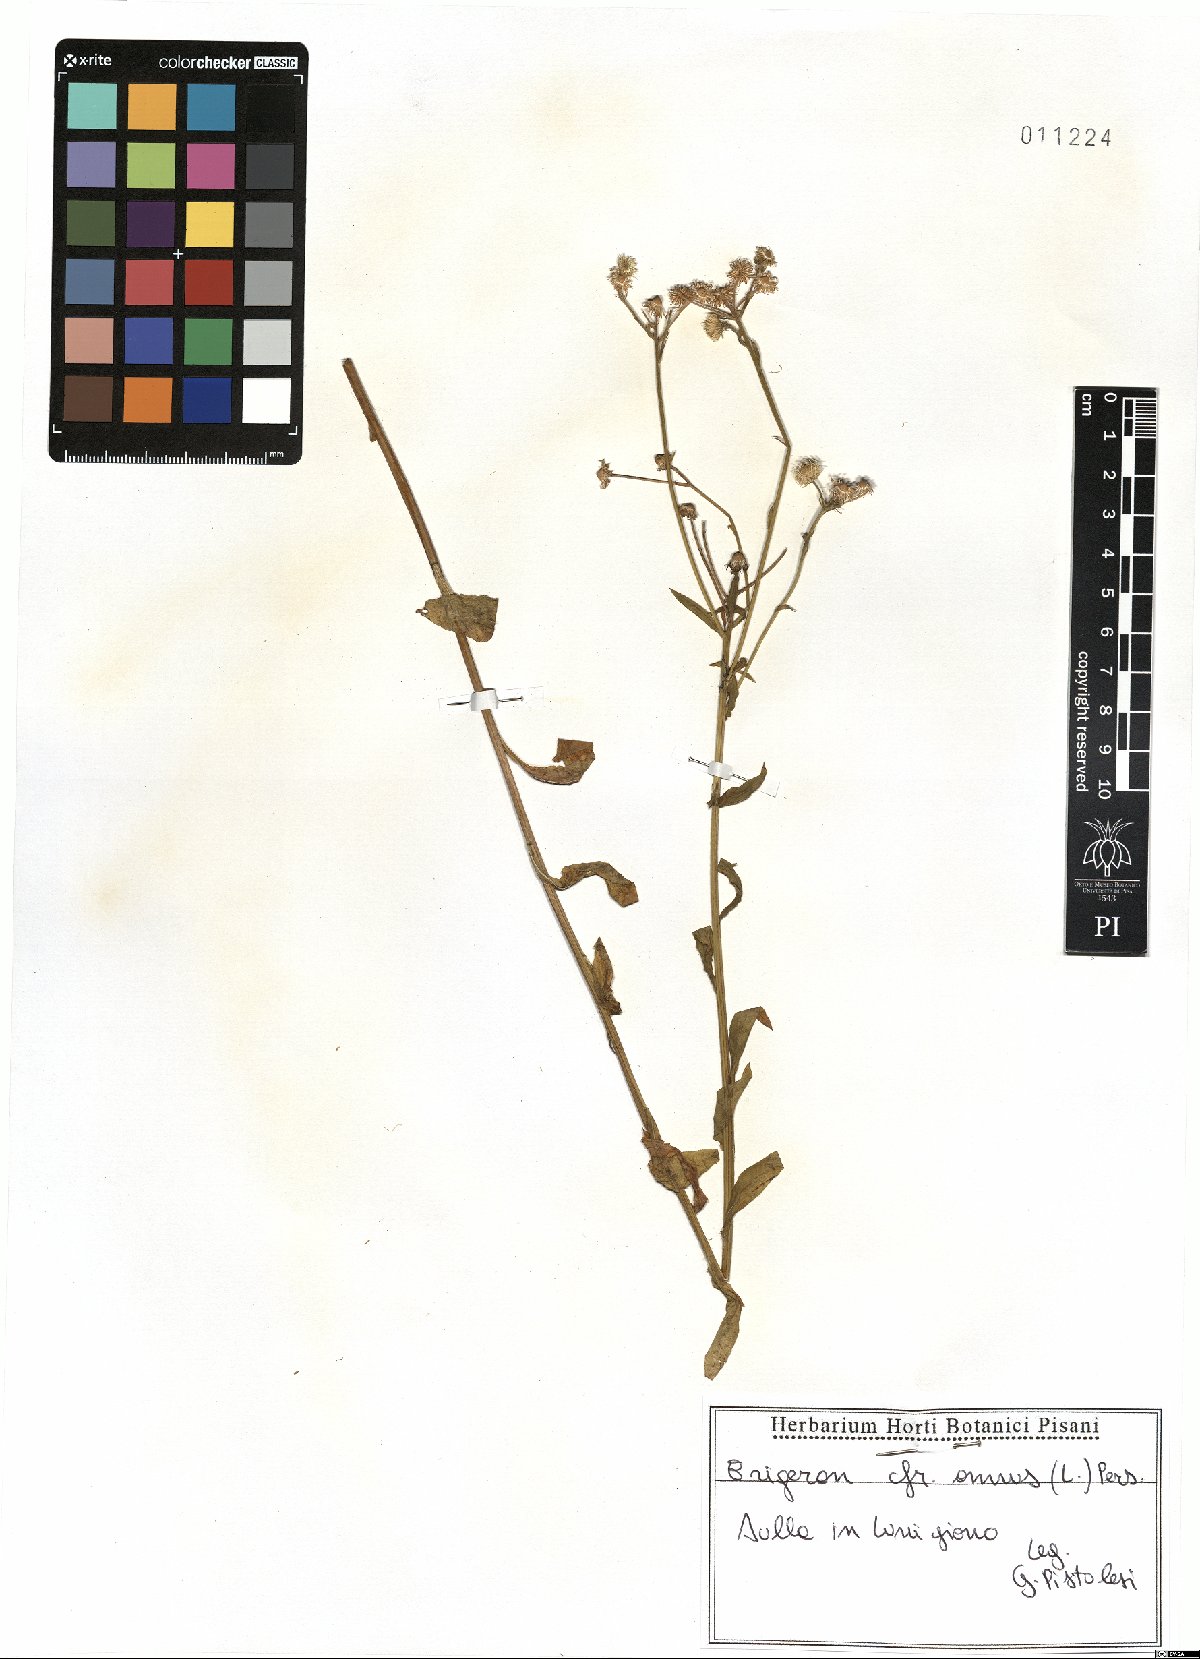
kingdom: Plantae
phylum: Tracheophyta
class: Magnoliopsida
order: Asterales
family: Asteraceae
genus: Erigeron
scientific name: Erigeron annuus
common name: Tall fleabane
